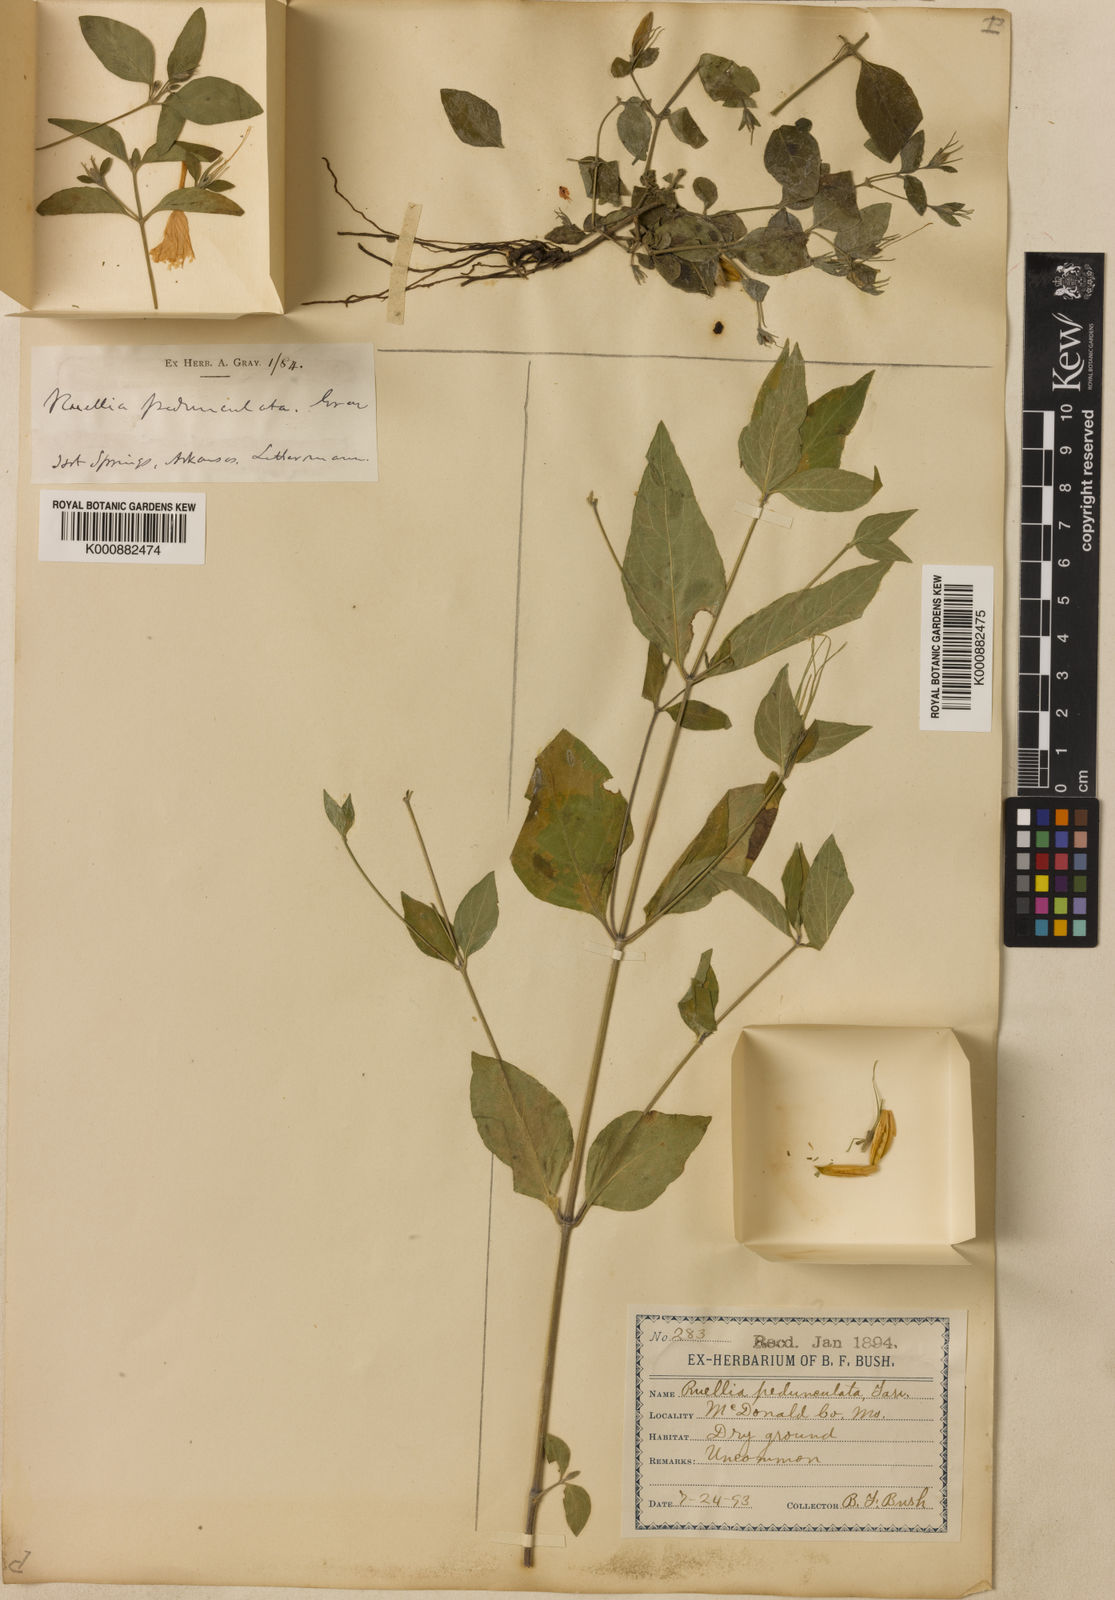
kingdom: Plantae
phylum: Tracheophyta
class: Magnoliopsida
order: Lamiales
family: Acanthaceae
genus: Ruellia
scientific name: Ruellia pedunculata
